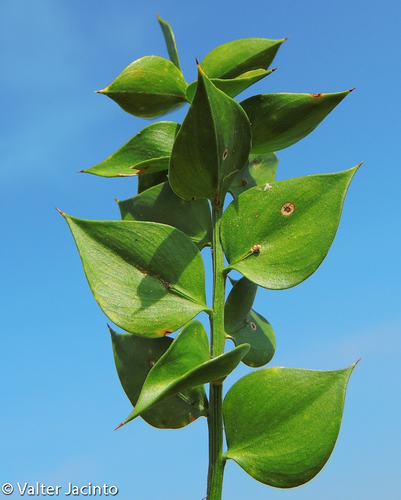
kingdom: Plantae
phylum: Tracheophyta
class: Liliopsida
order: Asparagales
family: Asparagaceae
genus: Ruscus
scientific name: Ruscus aculeatus
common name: Butcher's-broom
